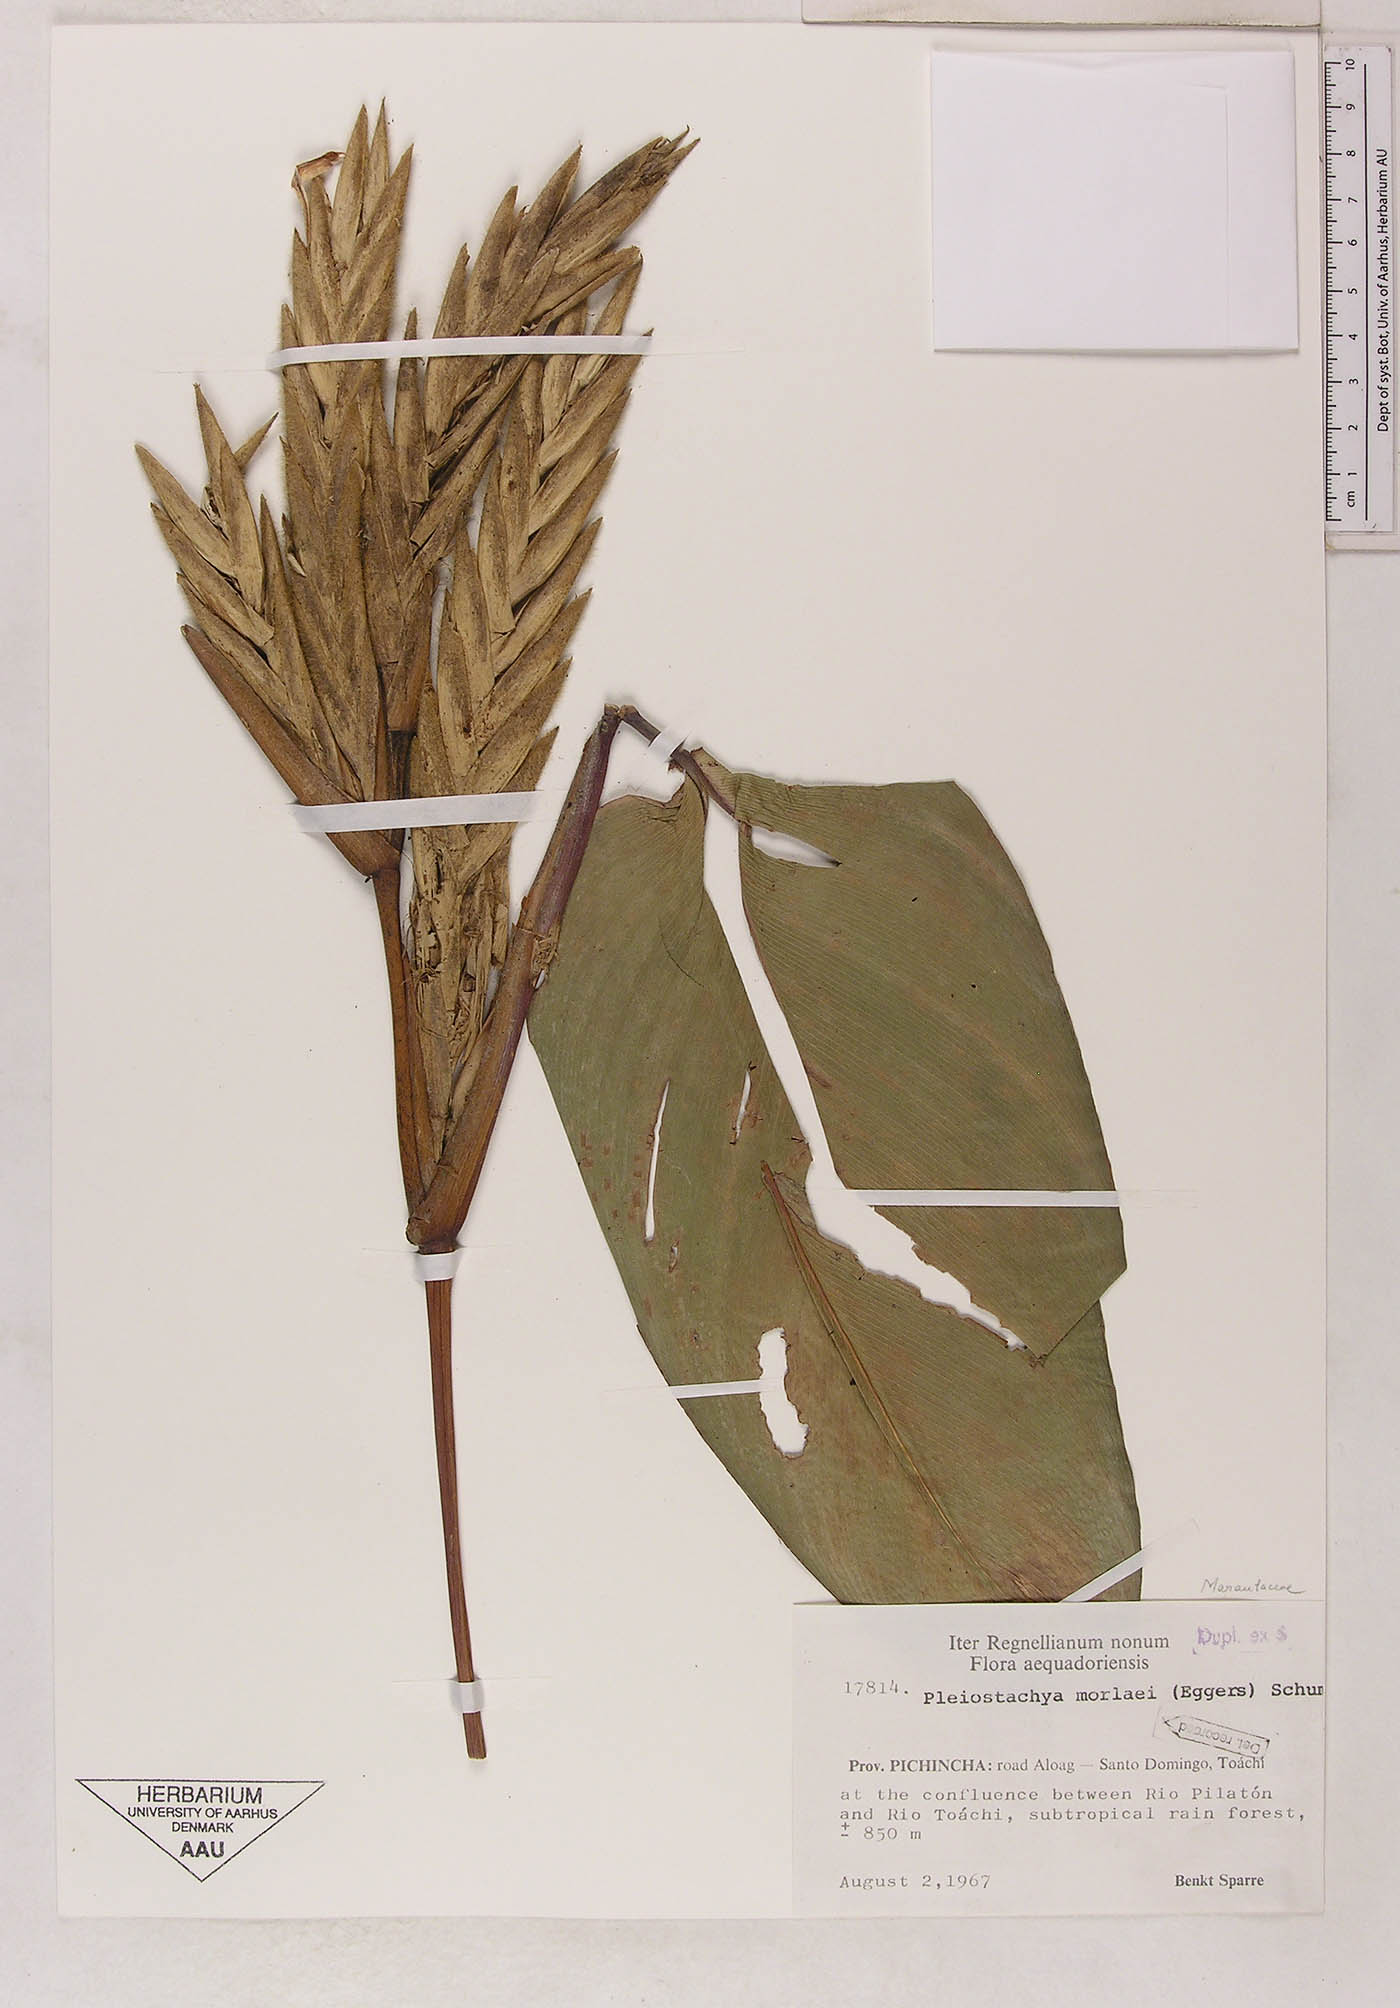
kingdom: Plantae
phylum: Tracheophyta
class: Liliopsida
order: Zingiberales
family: Marantaceae
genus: Pleiostachya
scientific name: Pleiostachya pruinosa
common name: Prayer plant
